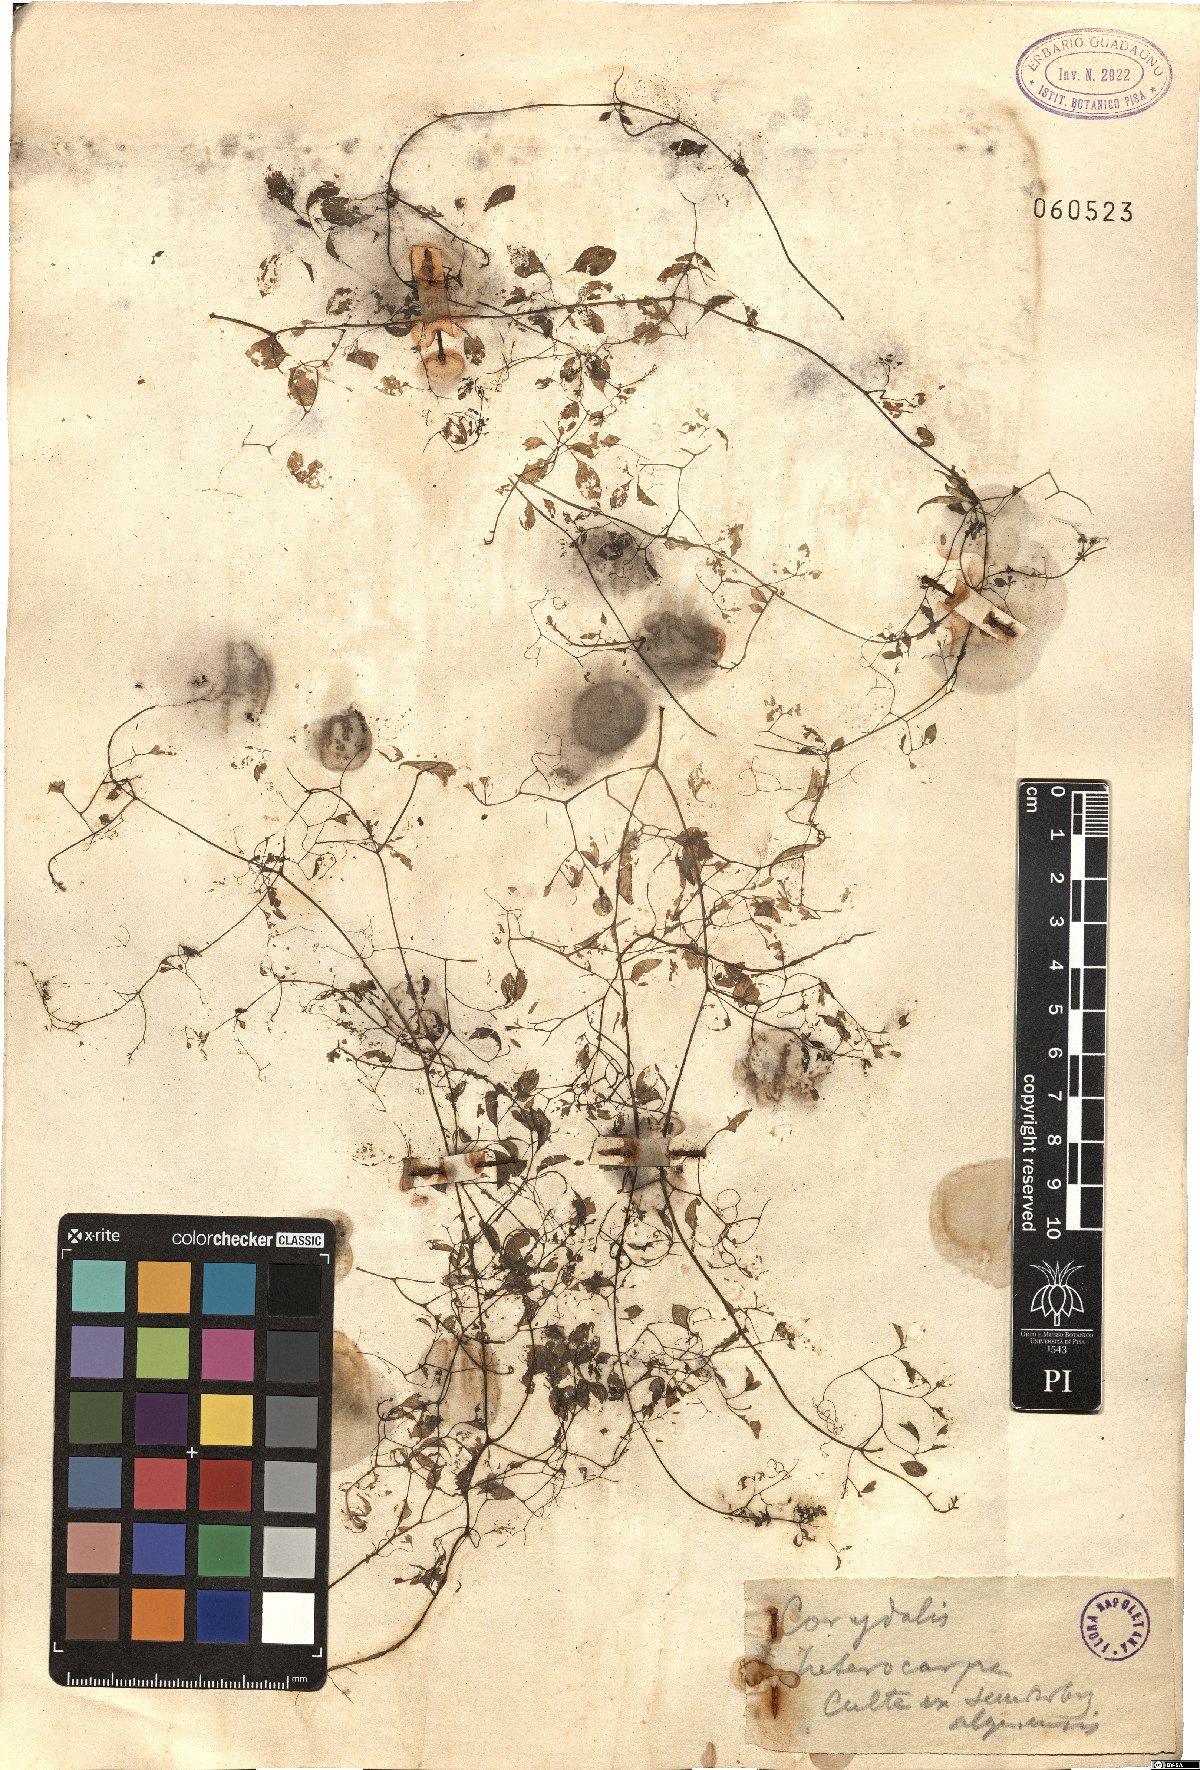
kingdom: Plantae
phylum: Tracheophyta
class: Magnoliopsida
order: Ranunculales
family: Papaveraceae
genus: Ceratocapnos
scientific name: Ceratocapnos heterocarpa
